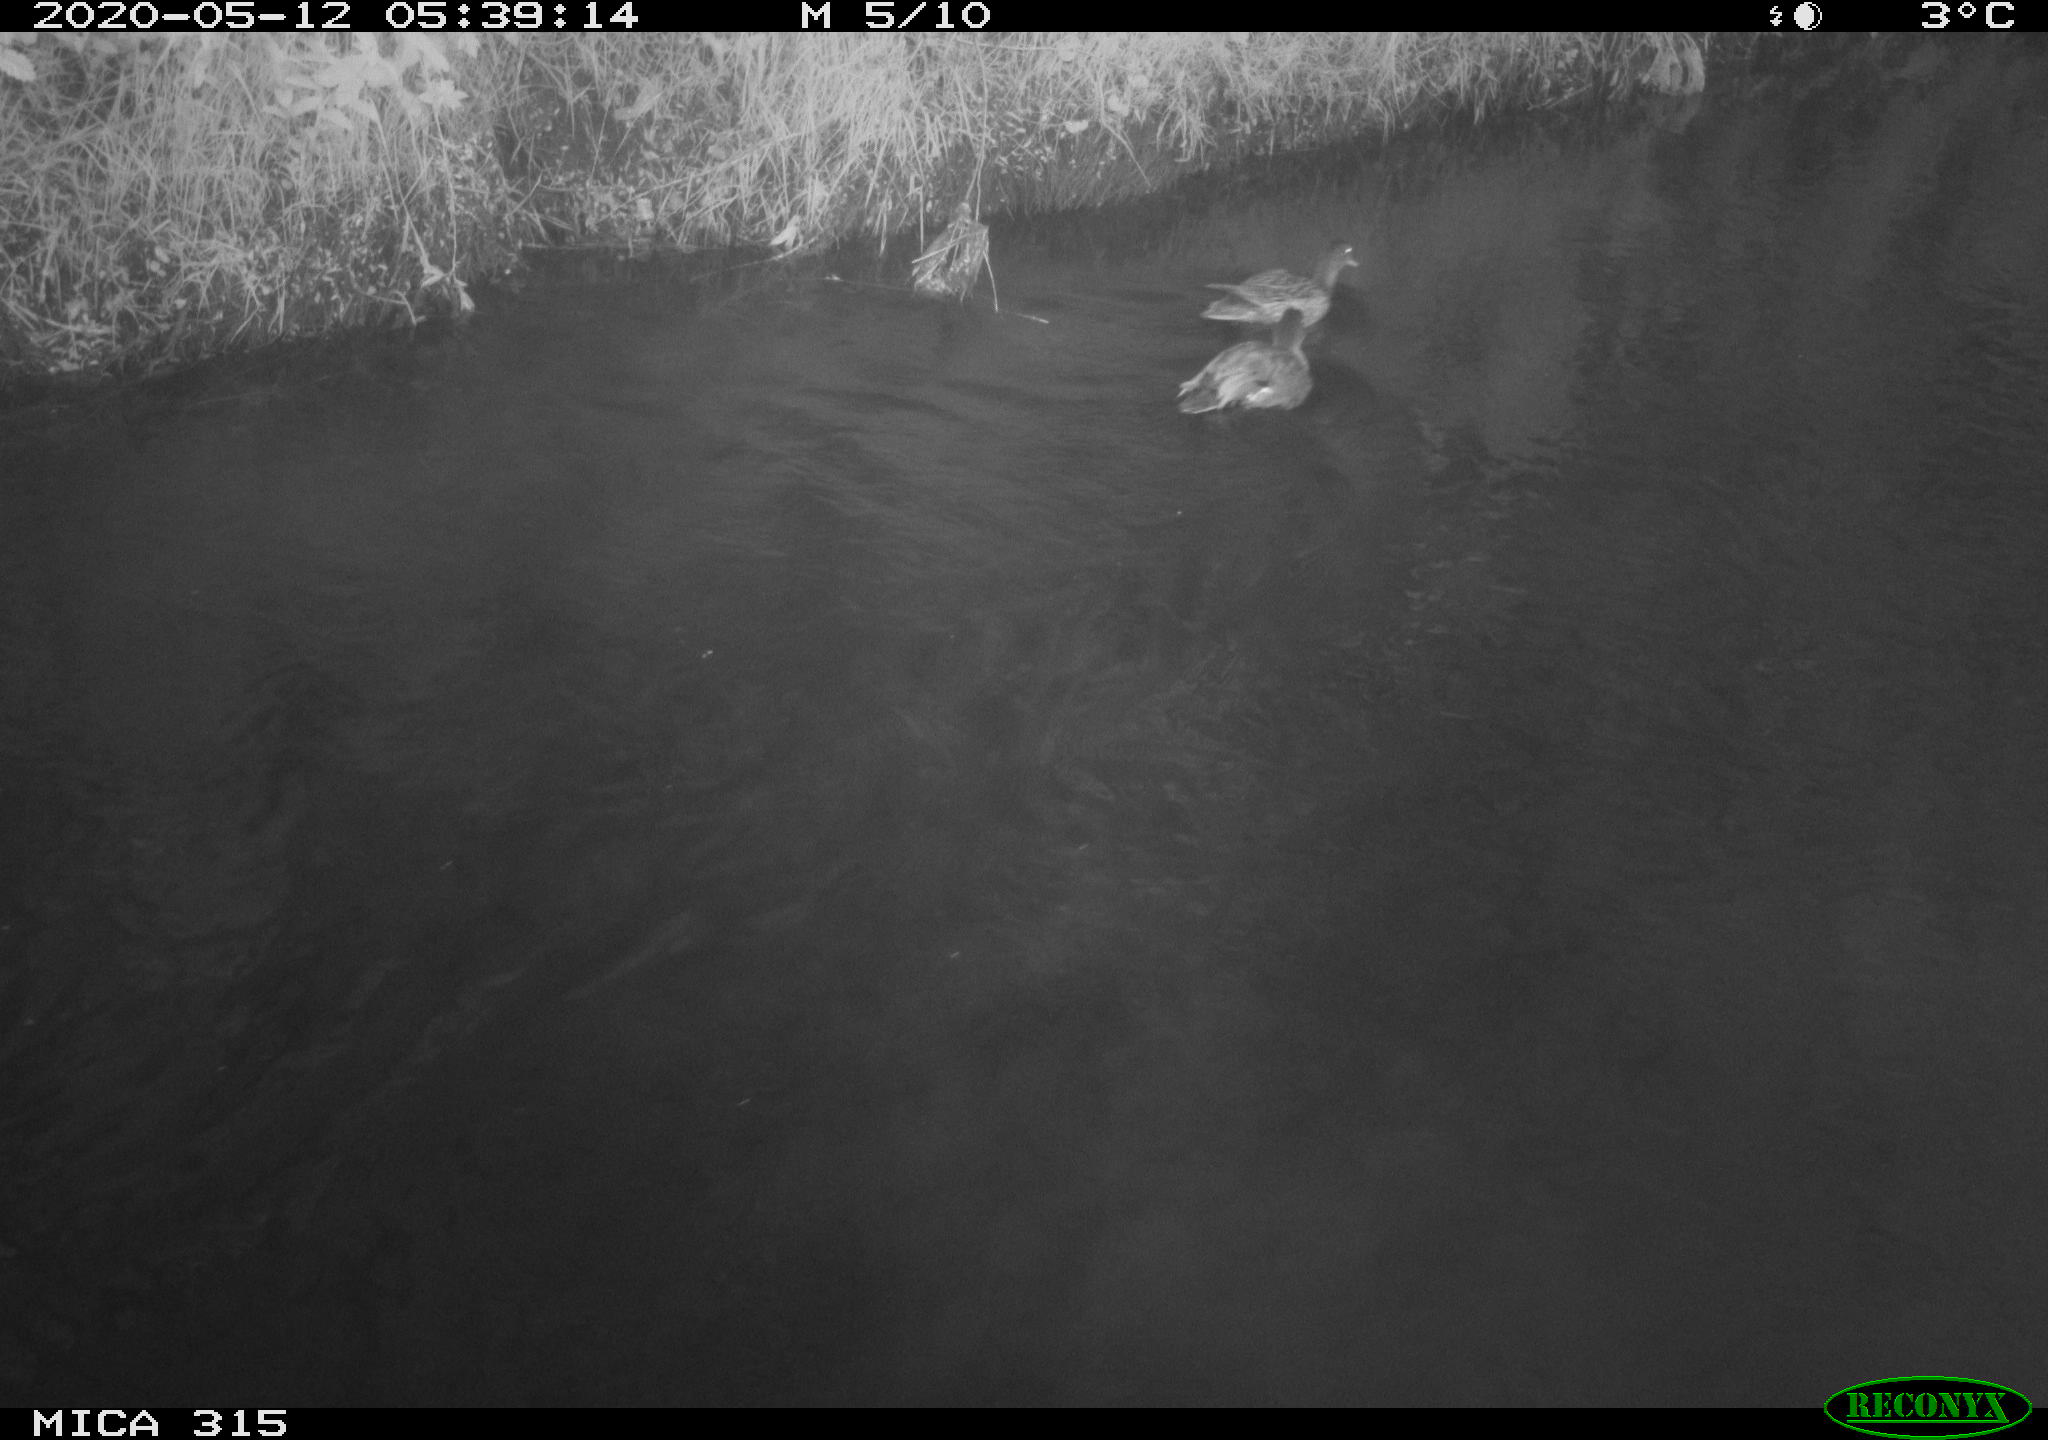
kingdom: Animalia
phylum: Chordata
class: Aves
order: Anseriformes
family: Anatidae
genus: Anas
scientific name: Anas platyrhynchos
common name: Mallard
